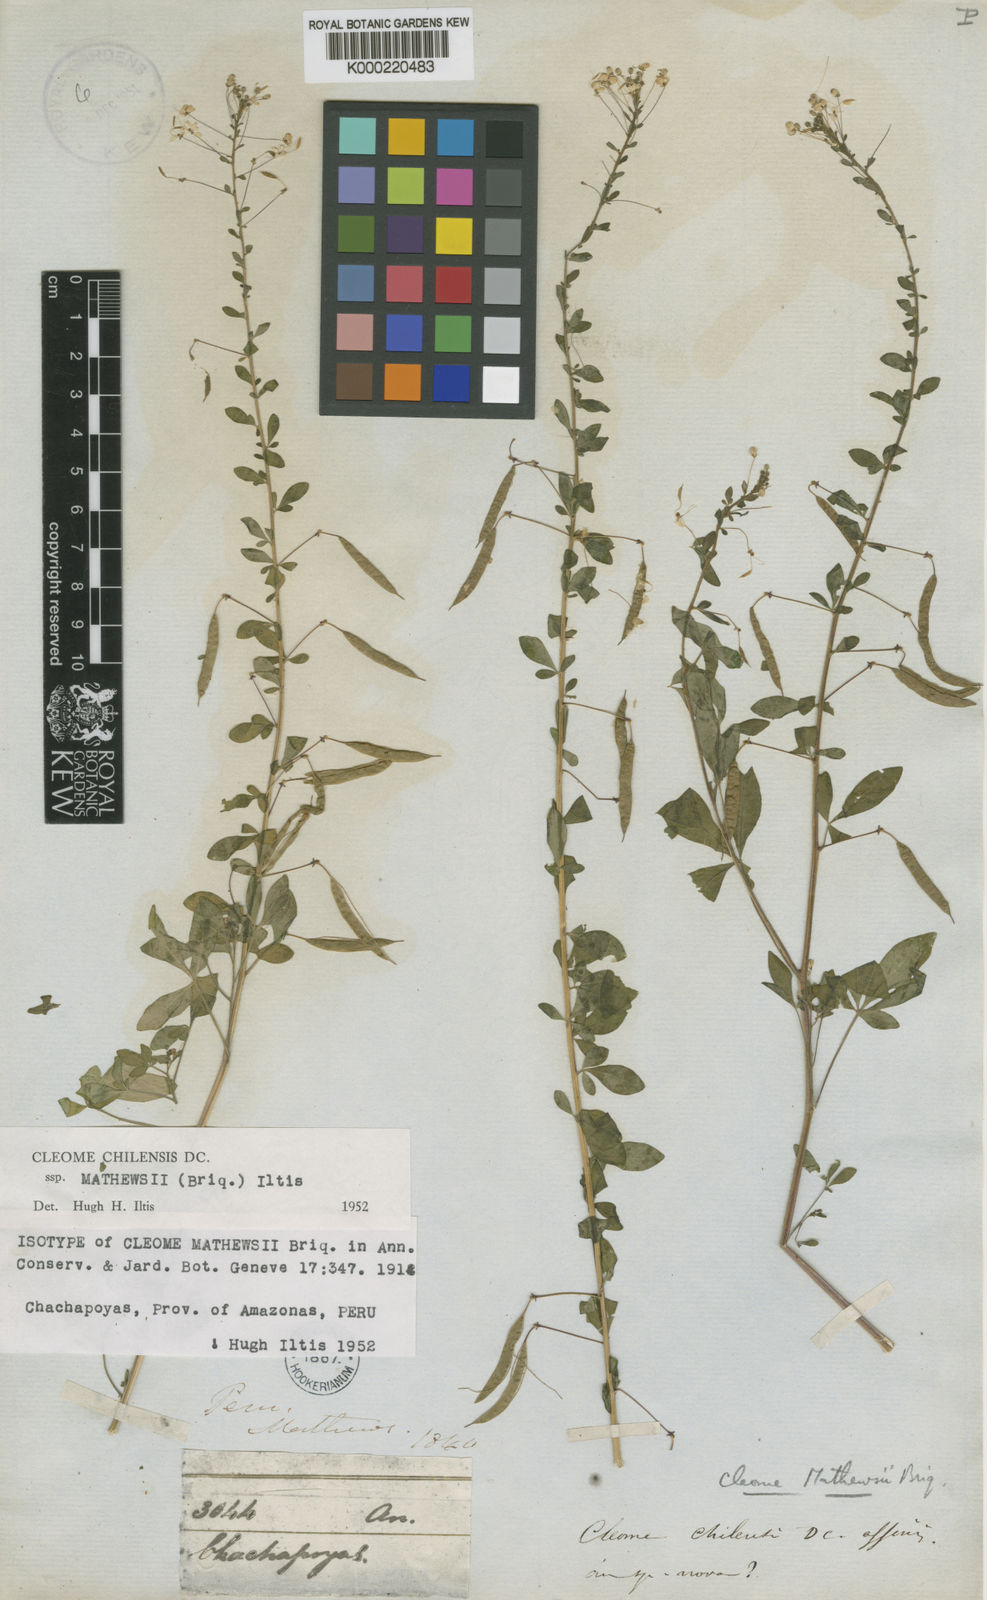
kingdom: Plantae
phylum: Tracheophyta
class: Magnoliopsida
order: Brassicales
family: Cleomaceae
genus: Andinocleome
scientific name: Andinocleome mathewsii
